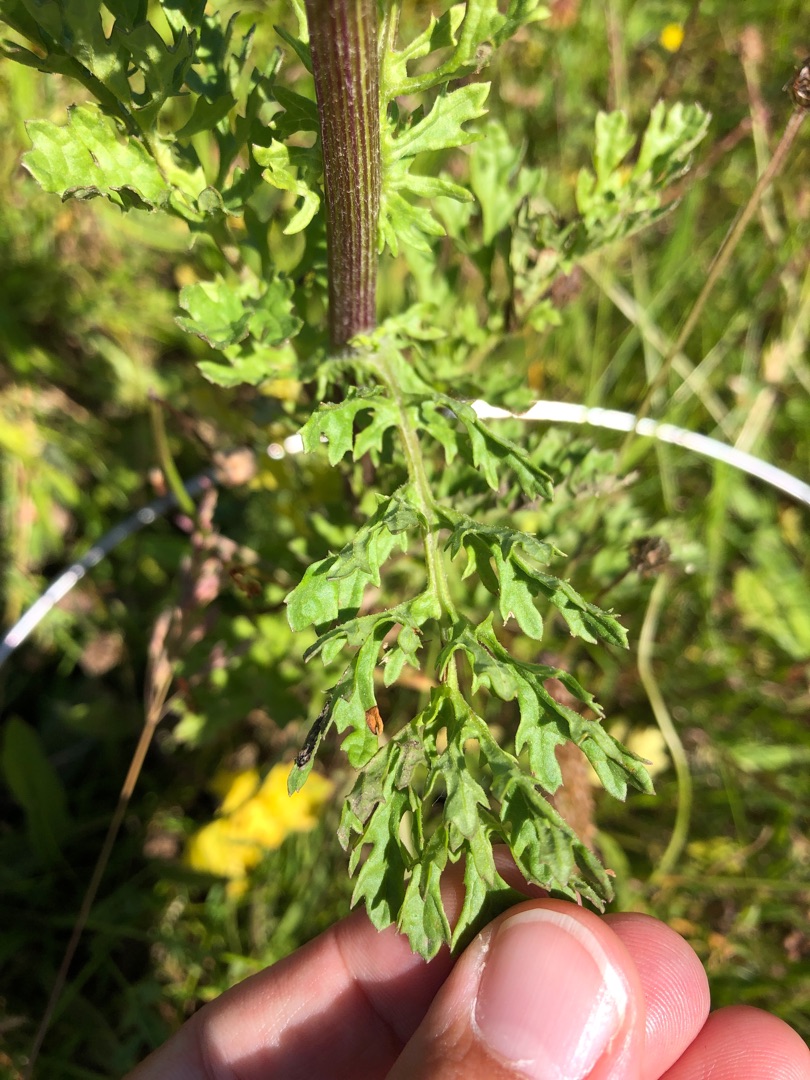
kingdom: Plantae
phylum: Tracheophyta
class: Magnoliopsida
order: Asterales
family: Asteraceae
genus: Jacobaea
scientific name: Jacobaea vulgaris
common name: Eng-brandbæger
